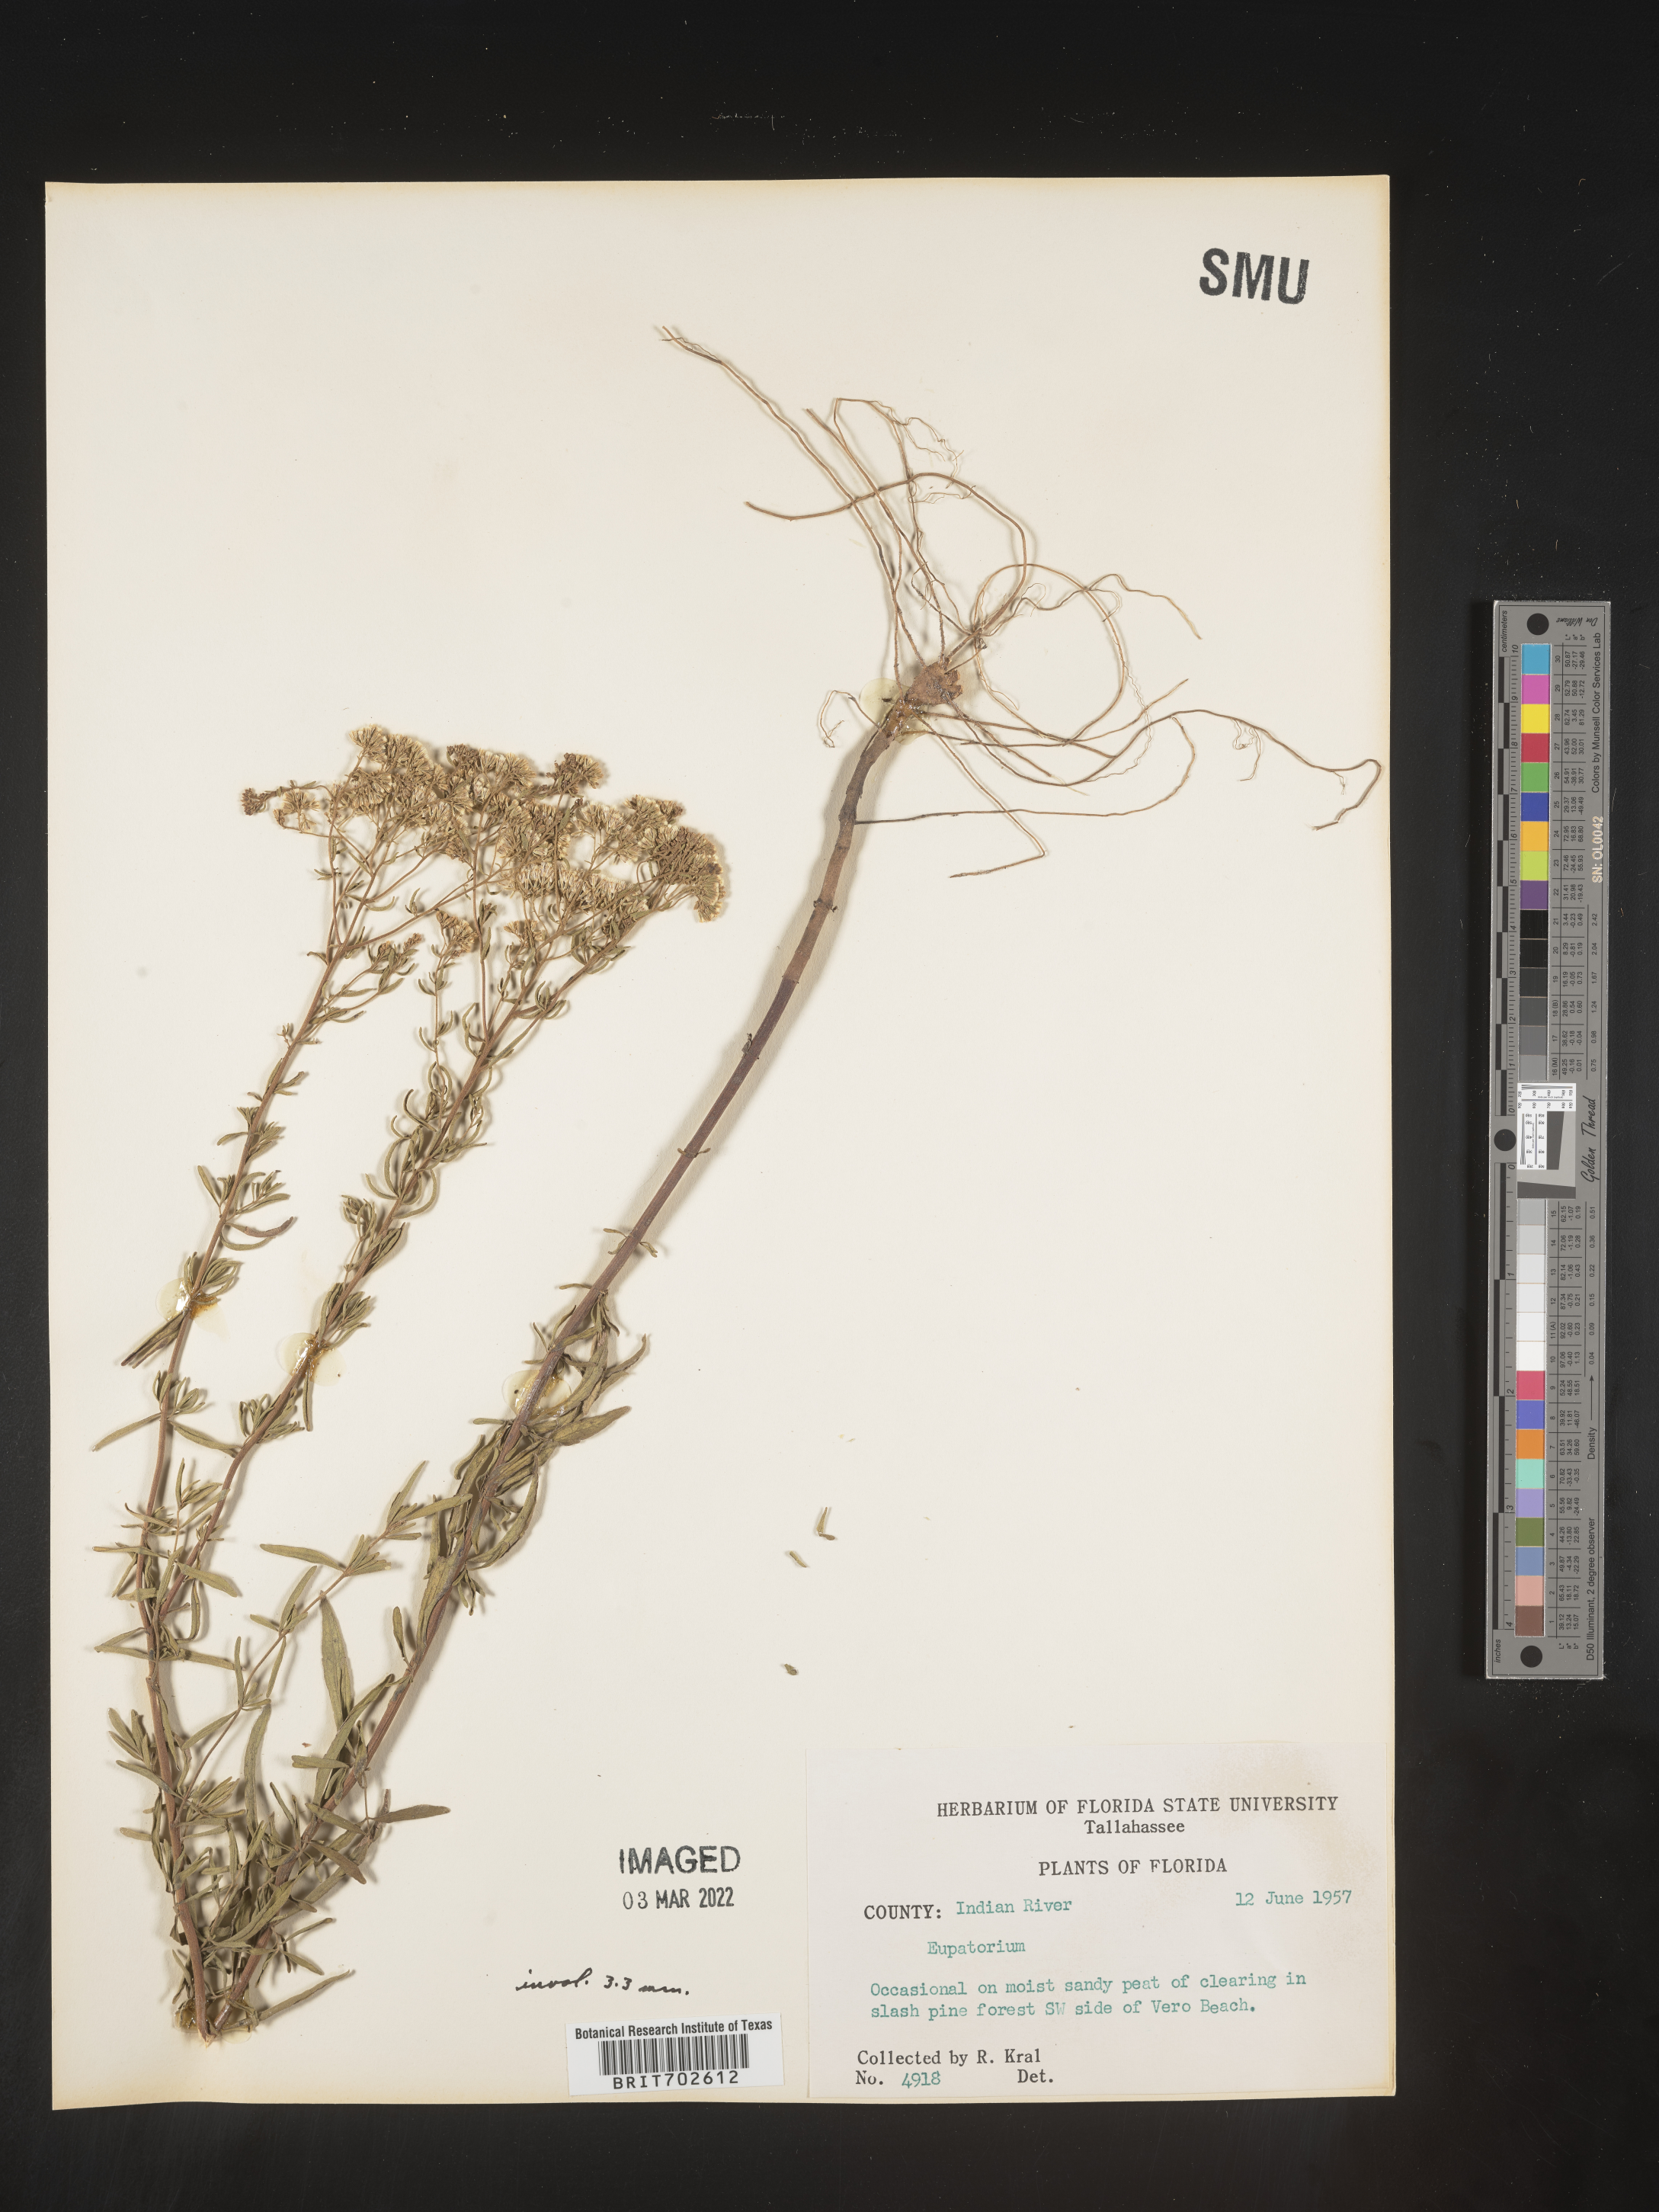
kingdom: Plantae
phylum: Tracheophyta
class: Magnoliopsida
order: Asterales
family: Asteraceae
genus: Eupatorium
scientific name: Eupatorium
